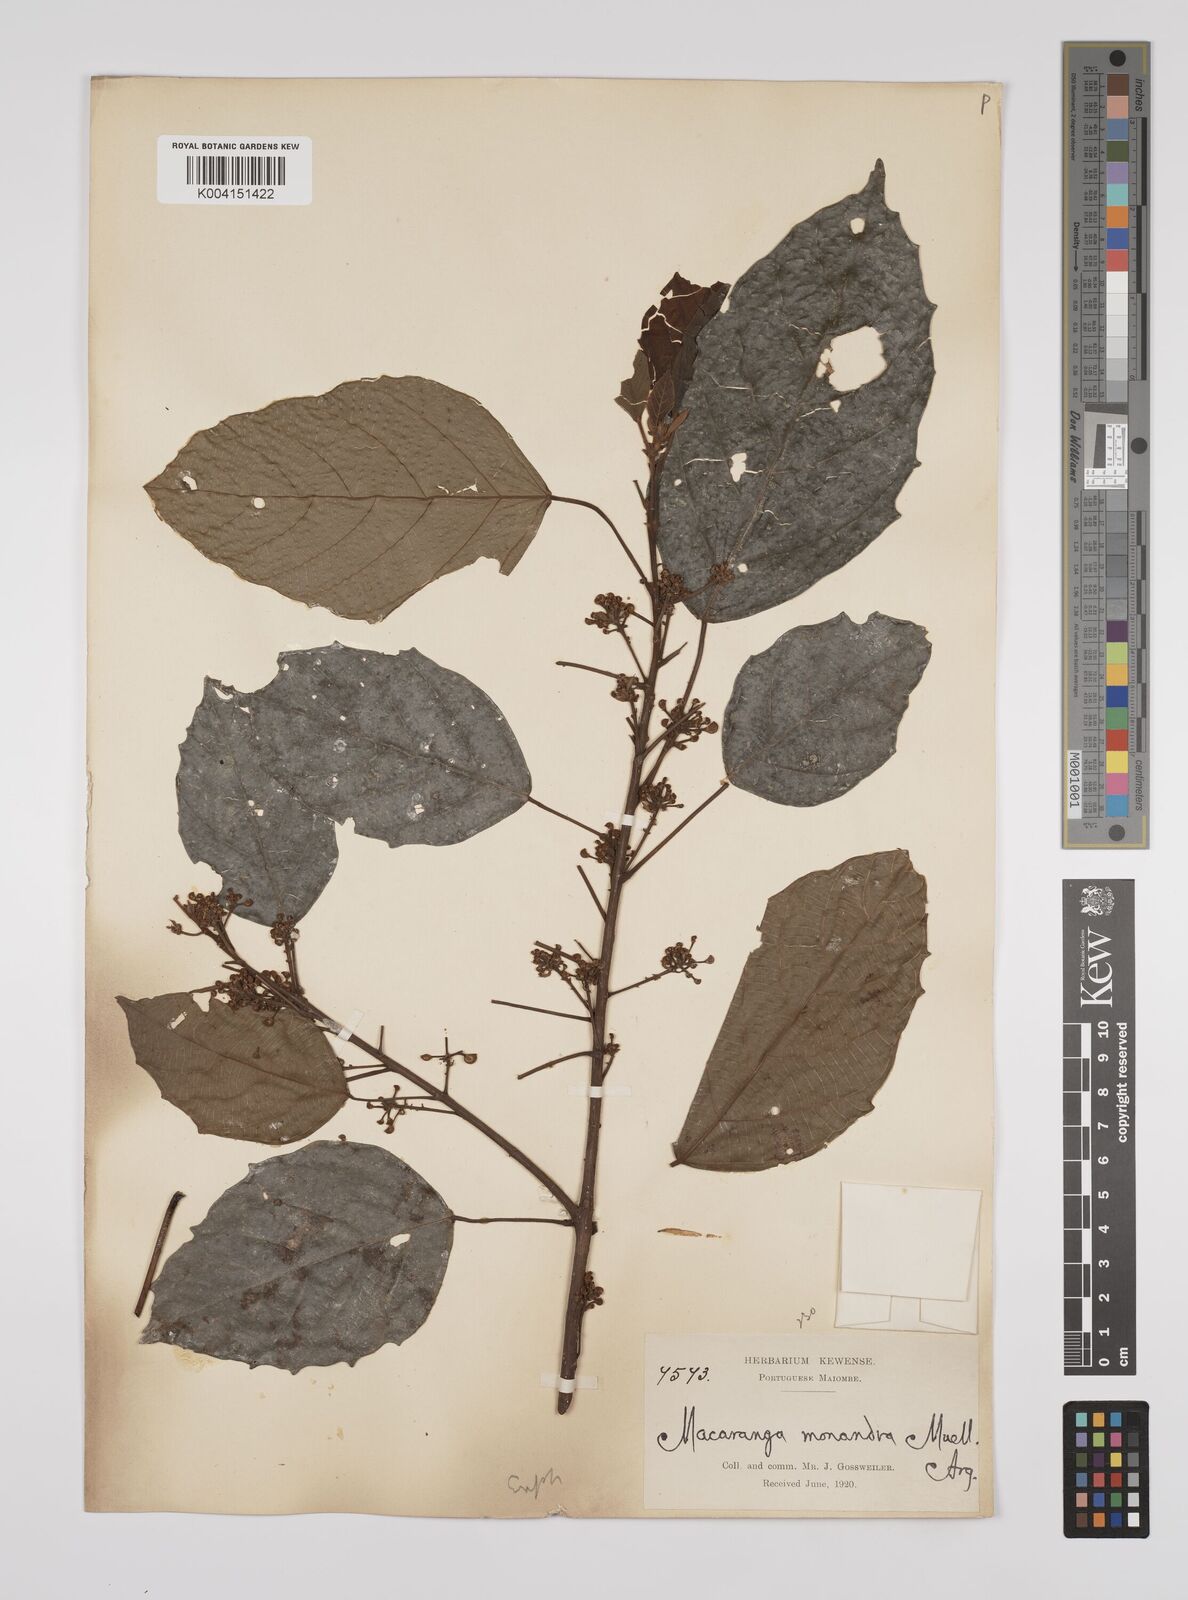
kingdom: Plantae
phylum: Tracheophyta
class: Magnoliopsida
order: Malpighiales
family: Euphorbiaceae
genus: Macaranga
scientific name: Macaranga monandra
